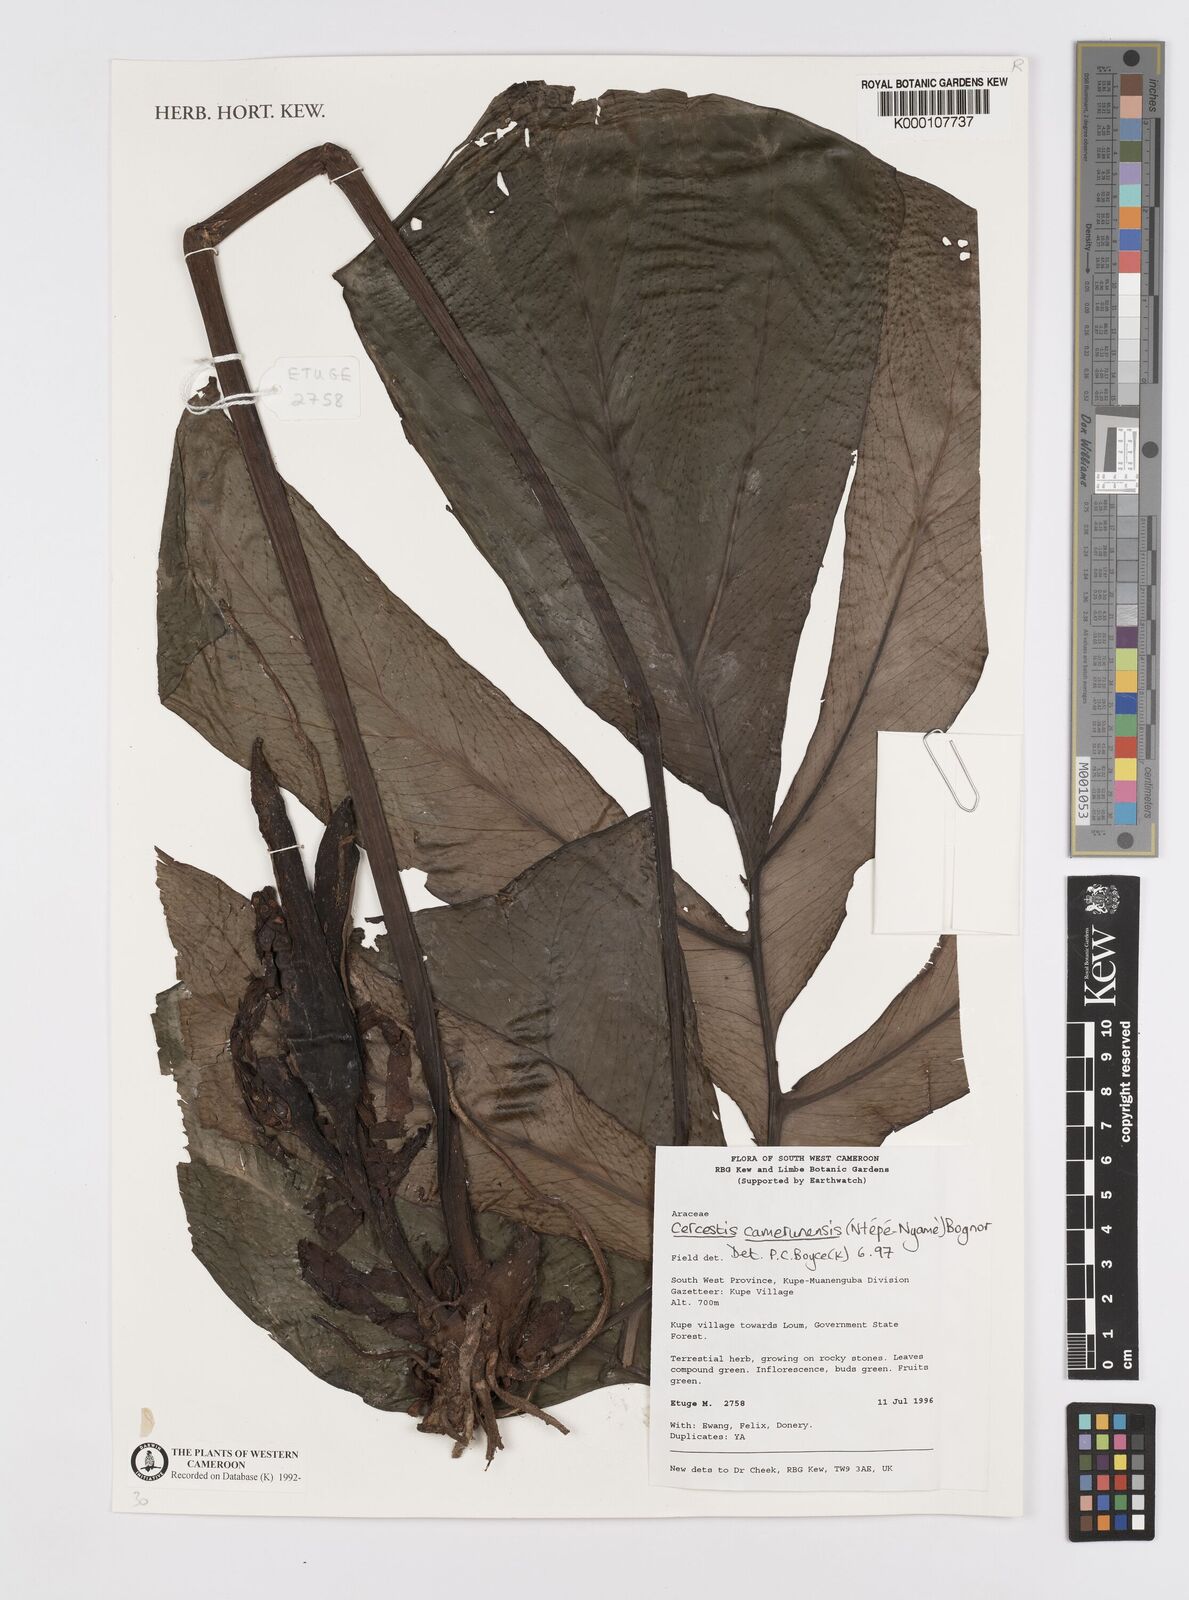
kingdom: Plantae
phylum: Tracheophyta
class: Liliopsida
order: Alismatales
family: Araceae
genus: Cercestis
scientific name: Cercestis camerunensis
